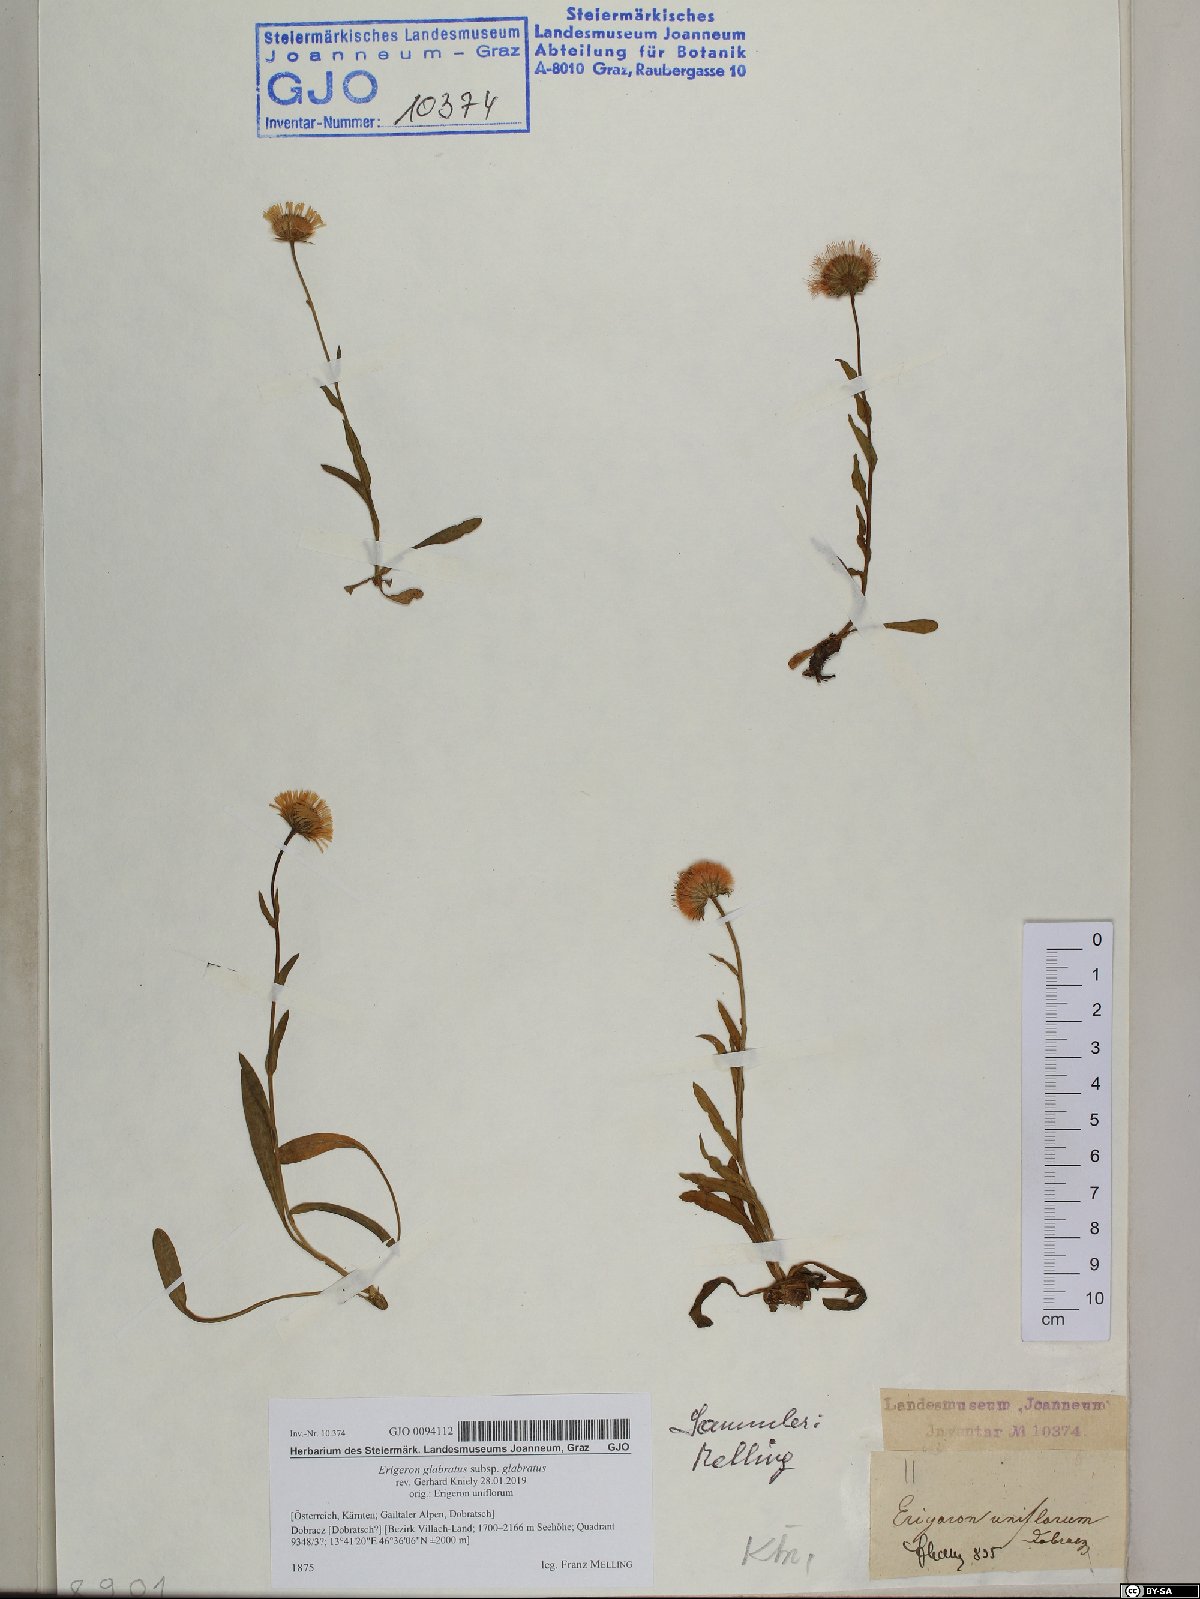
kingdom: Plantae
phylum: Tracheophyta
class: Magnoliopsida
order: Asterales
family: Asteraceae
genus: Erigeron
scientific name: Erigeron glabratus
